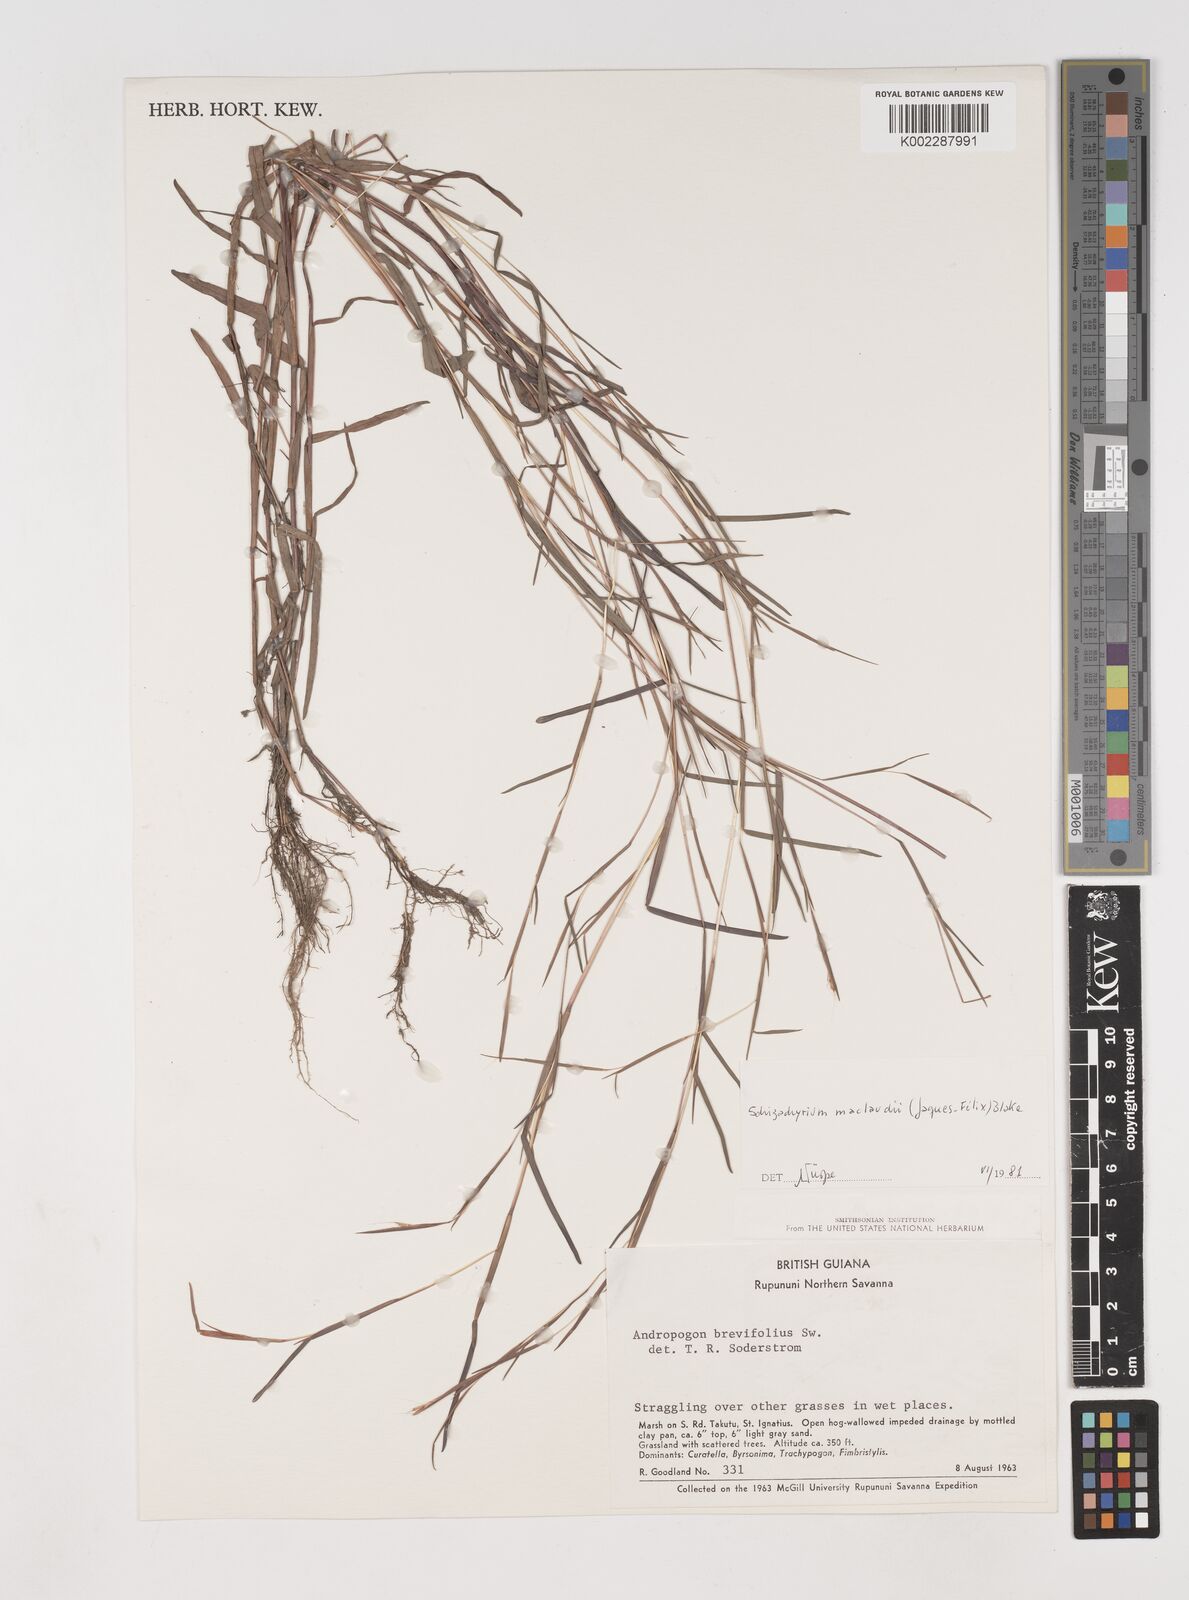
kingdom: Plantae
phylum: Tracheophyta
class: Liliopsida
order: Poales
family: Poaceae
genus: Schizachyrium
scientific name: Schizachyrium maclaudii
